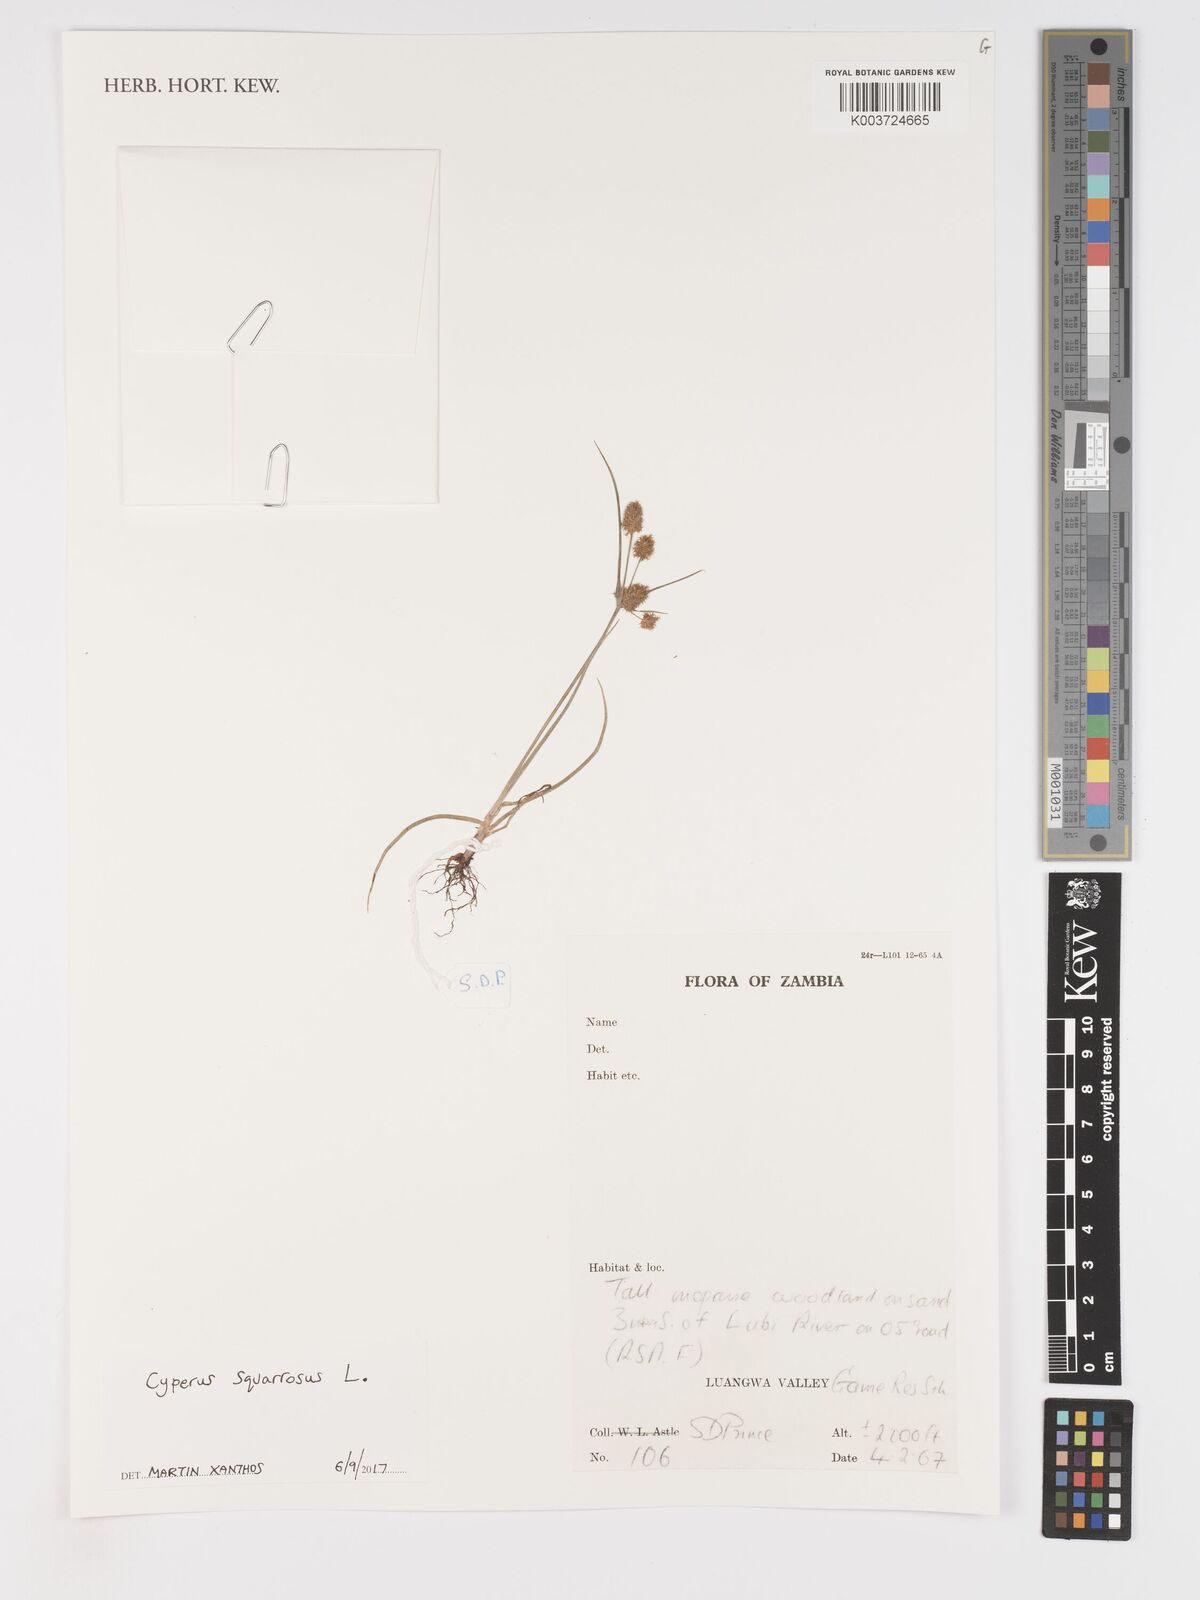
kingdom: Plantae
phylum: Tracheophyta
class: Liliopsida
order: Poales
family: Cyperaceae
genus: Cyperus
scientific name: Cyperus squarrosus
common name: Awned cyperus
